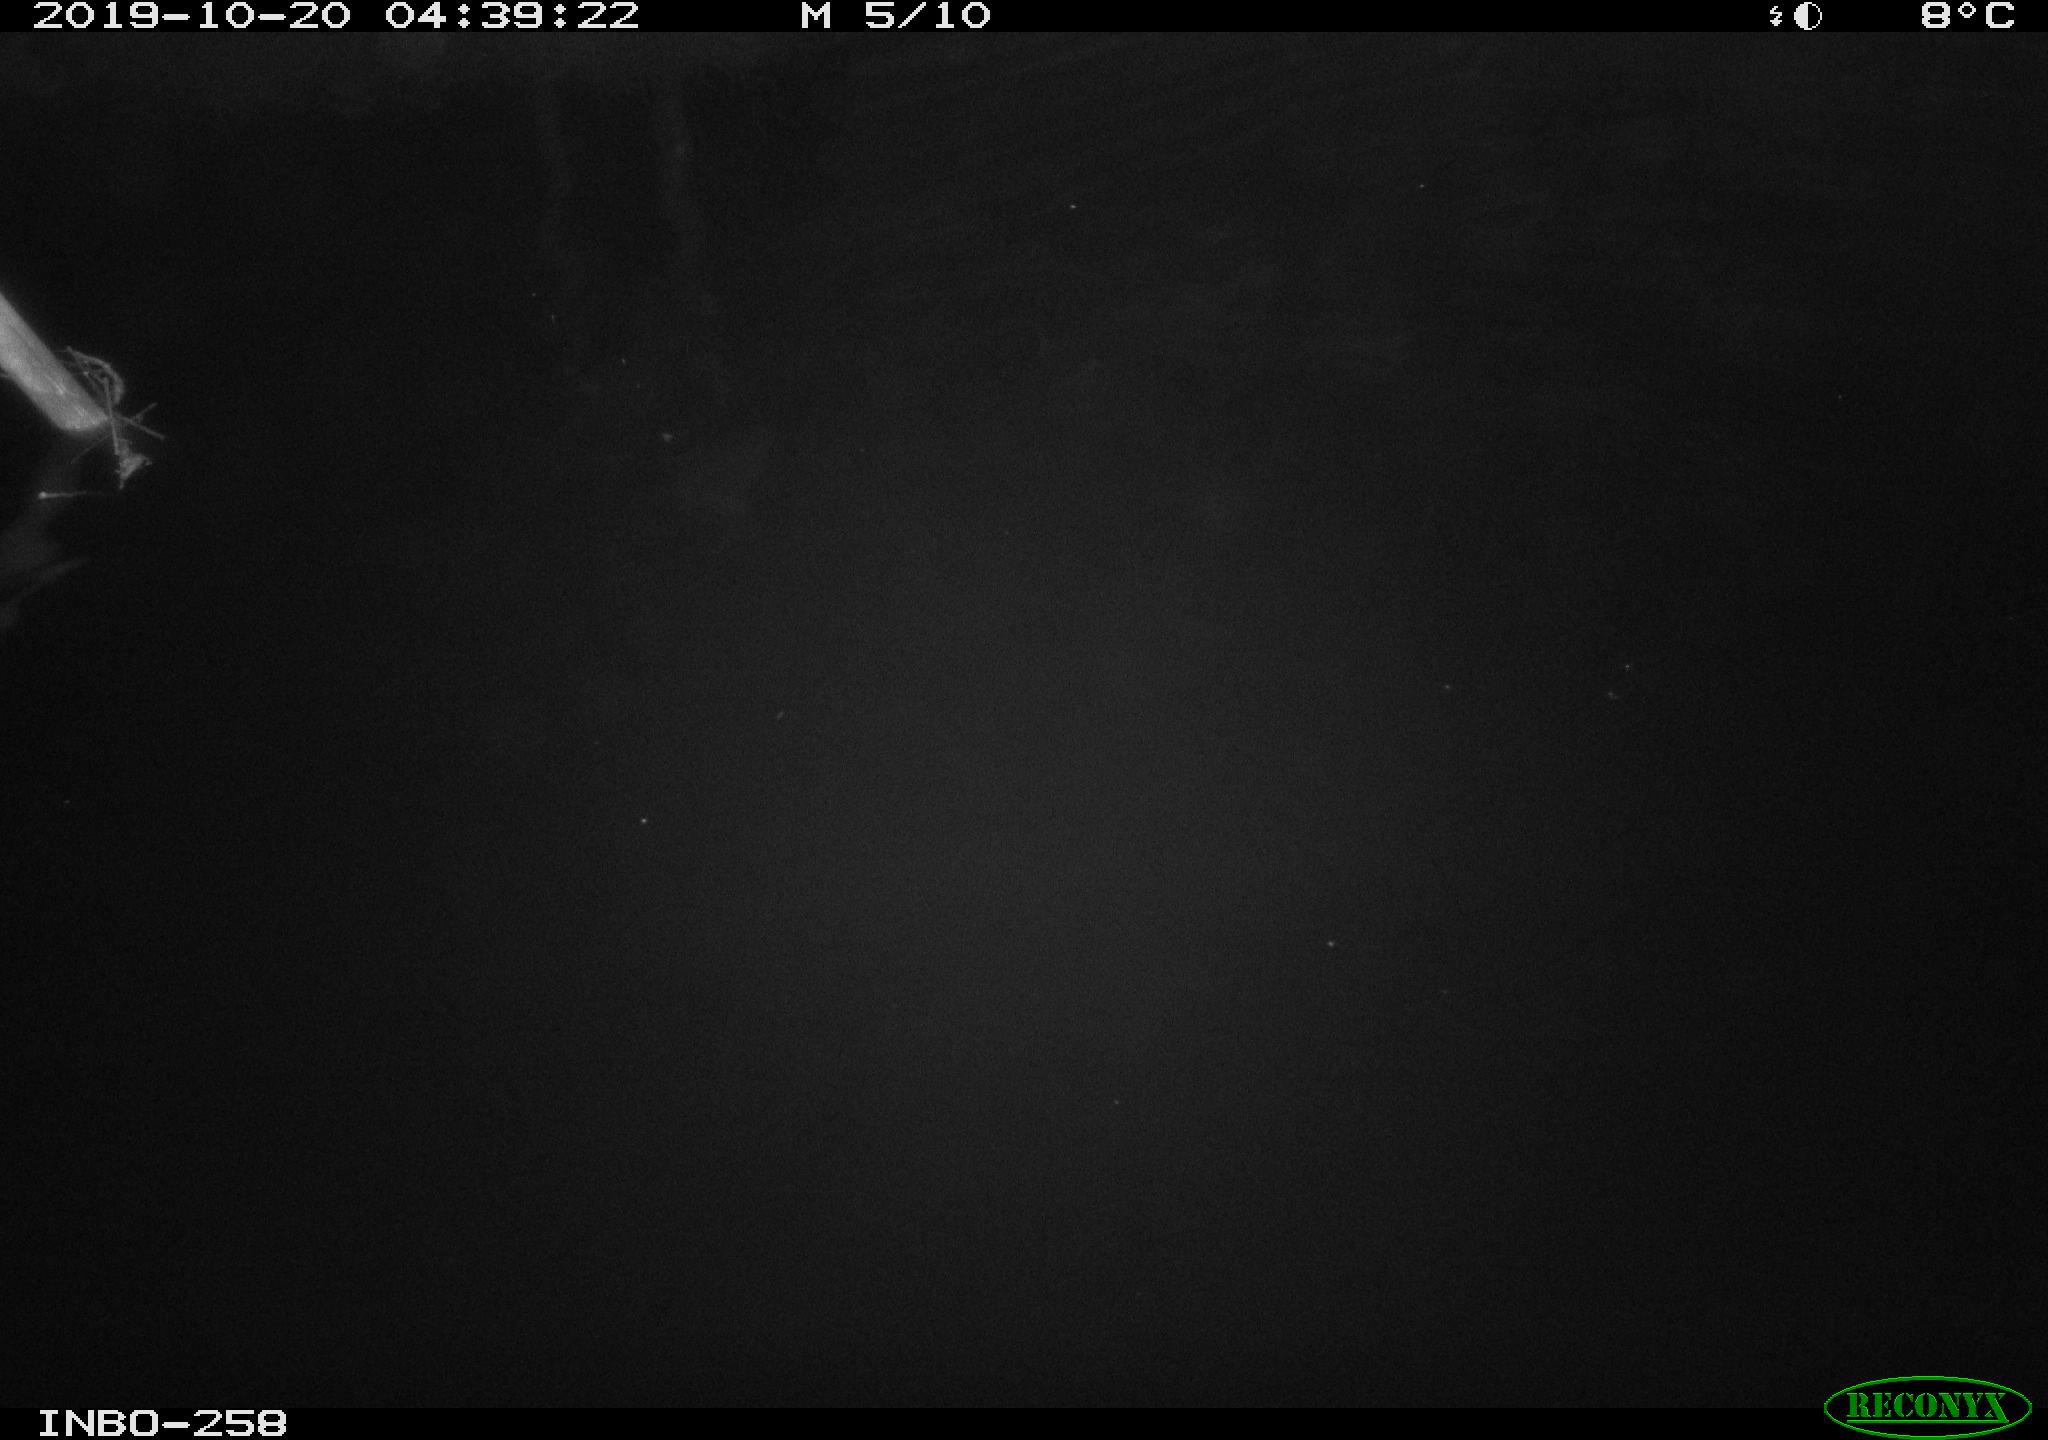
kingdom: Animalia
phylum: Chordata
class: Aves
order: Anseriformes
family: Anatidae
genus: Anas
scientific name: Anas platyrhynchos
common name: Mallard
